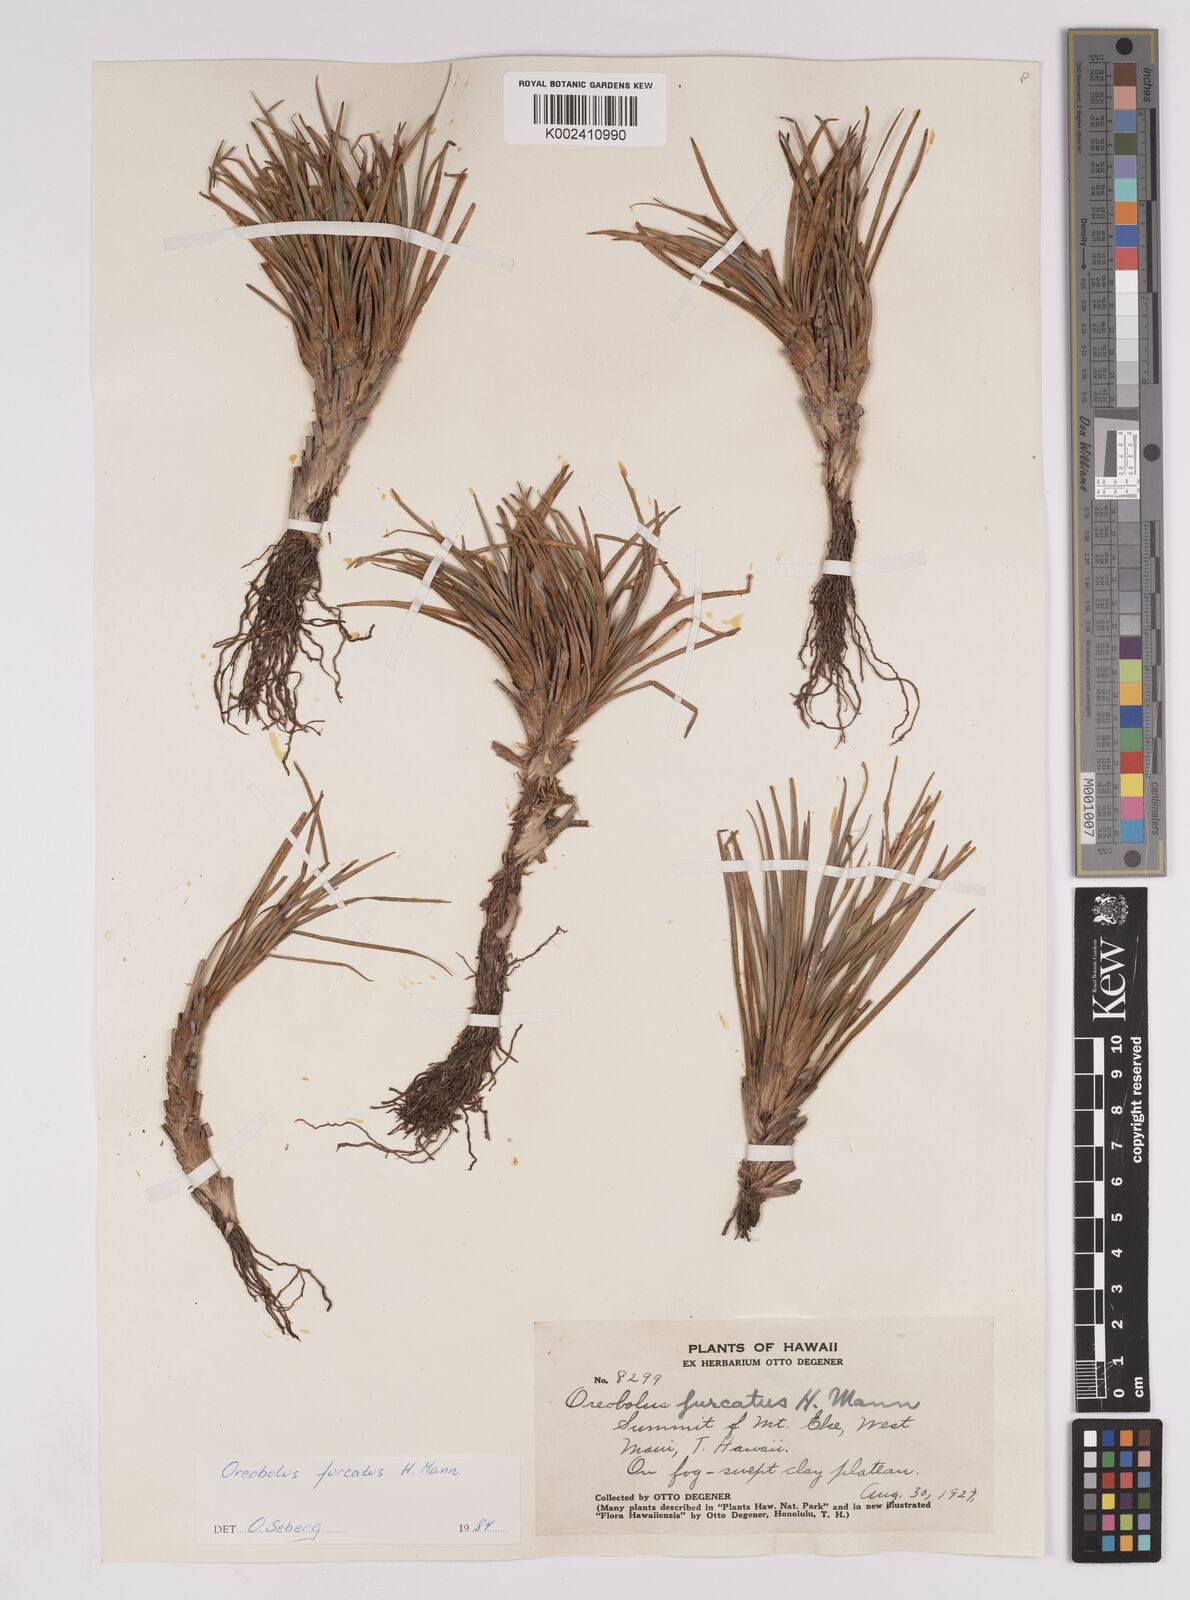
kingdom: Plantae
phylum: Tracheophyta
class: Liliopsida
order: Poales
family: Cyperaceae
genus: Oreobolus
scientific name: Oreobolus furcatus
